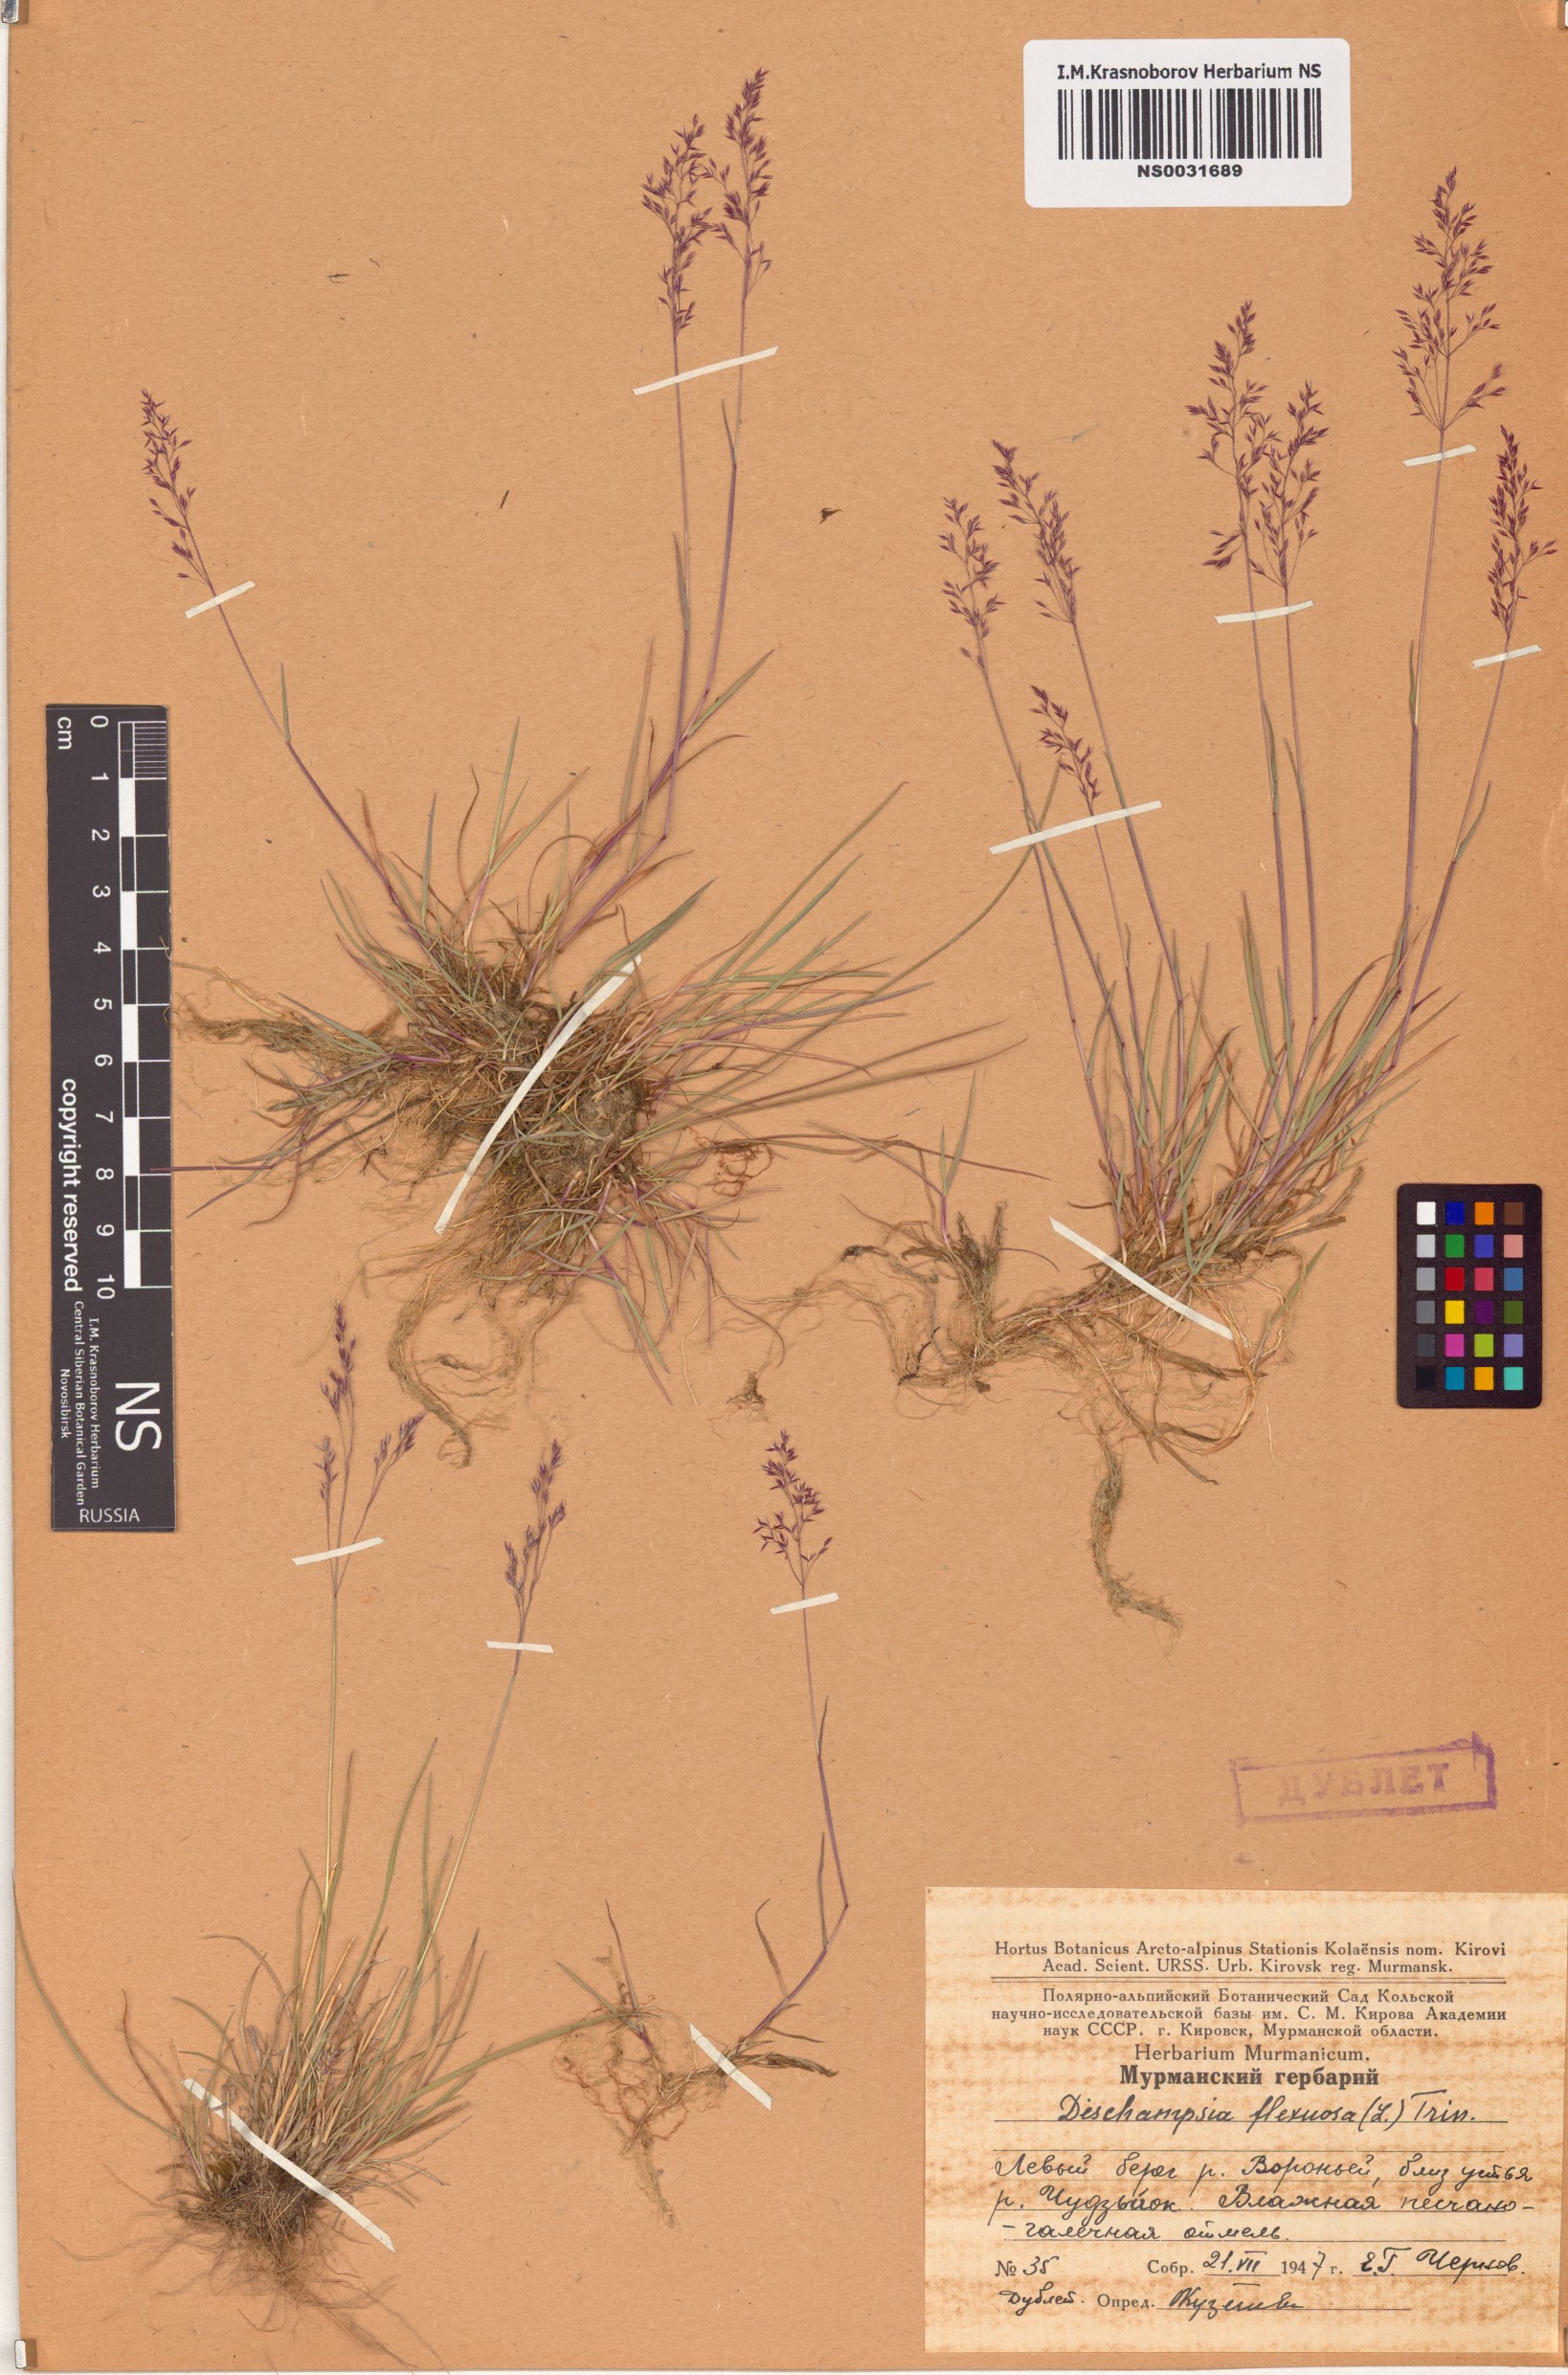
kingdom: Plantae
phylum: Tracheophyta
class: Liliopsida
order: Poales
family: Poaceae
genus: Avenella
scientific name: Avenella flexuosa
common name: Wavy hairgrass
